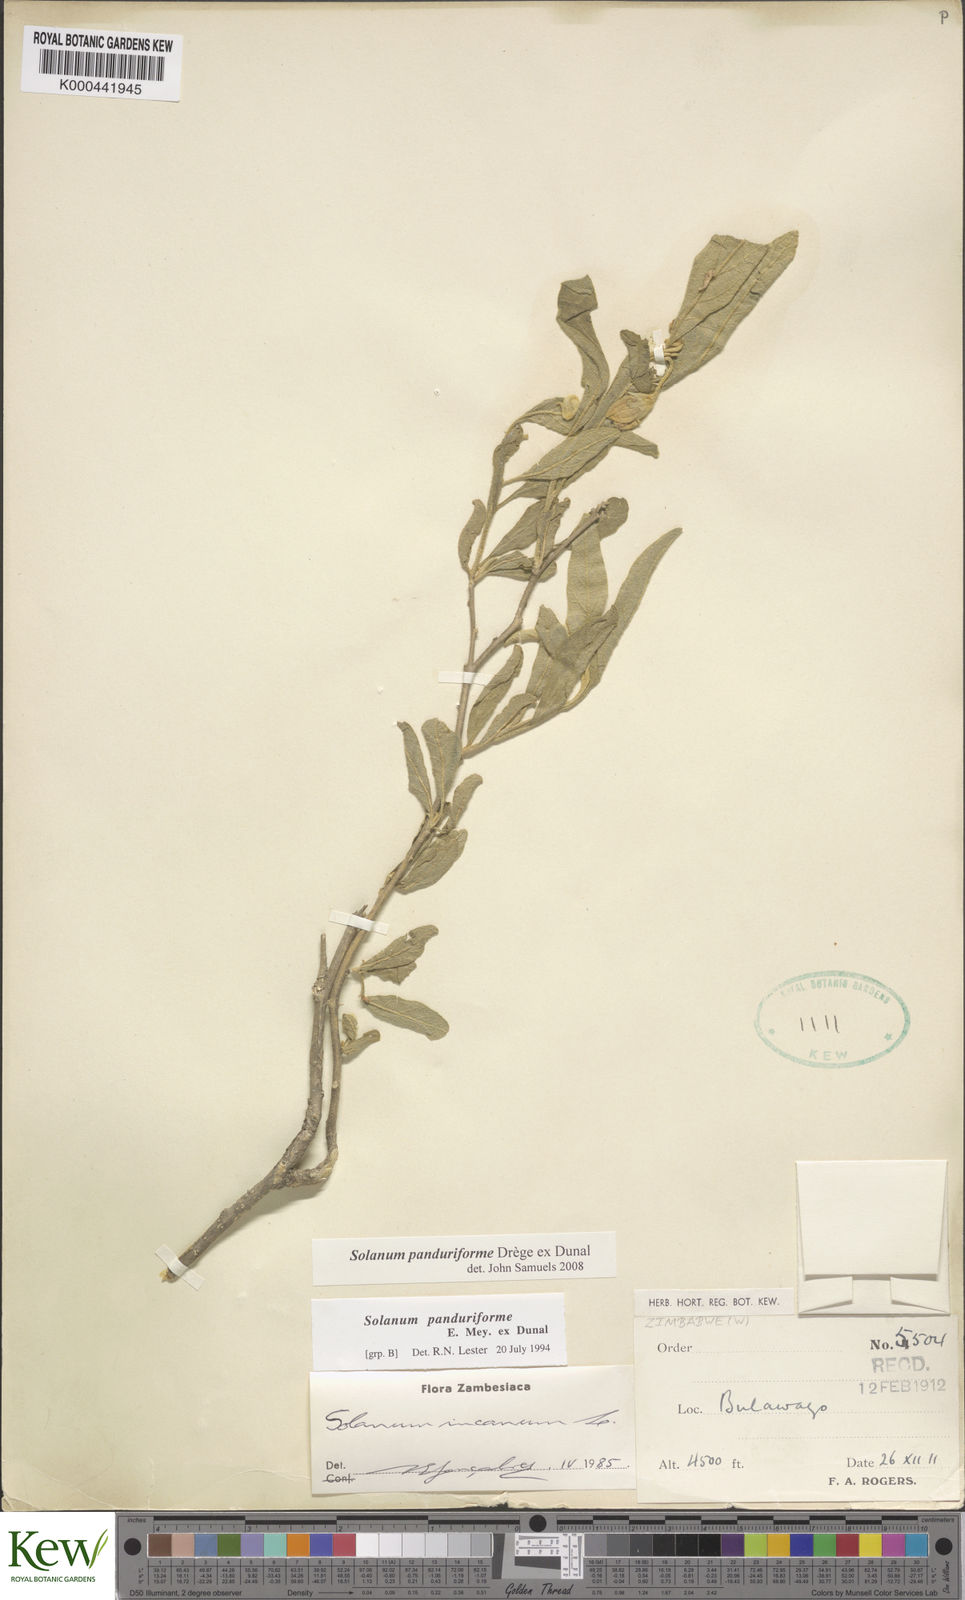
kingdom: Plantae
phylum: Tracheophyta
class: Magnoliopsida
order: Solanales
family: Solanaceae
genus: Solanum
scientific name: Solanum campylacanthum
